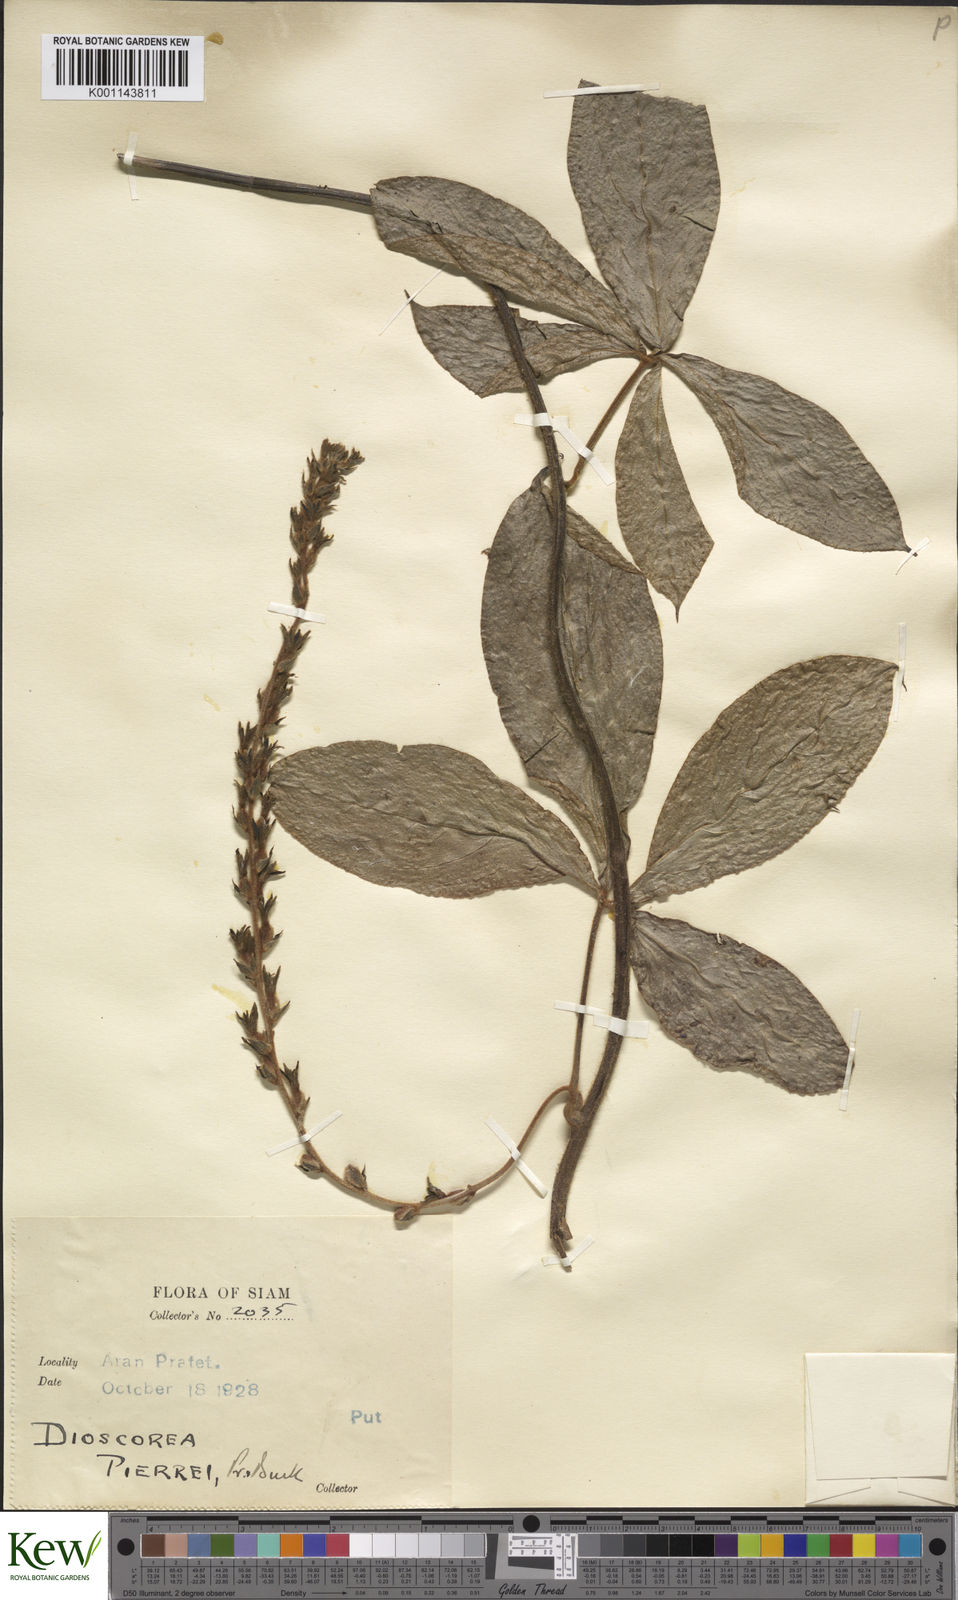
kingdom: Plantae
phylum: Tracheophyta
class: Liliopsida
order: Dioscoreales
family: Dioscoreaceae
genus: Dioscorea
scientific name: Dioscorea pierrei
